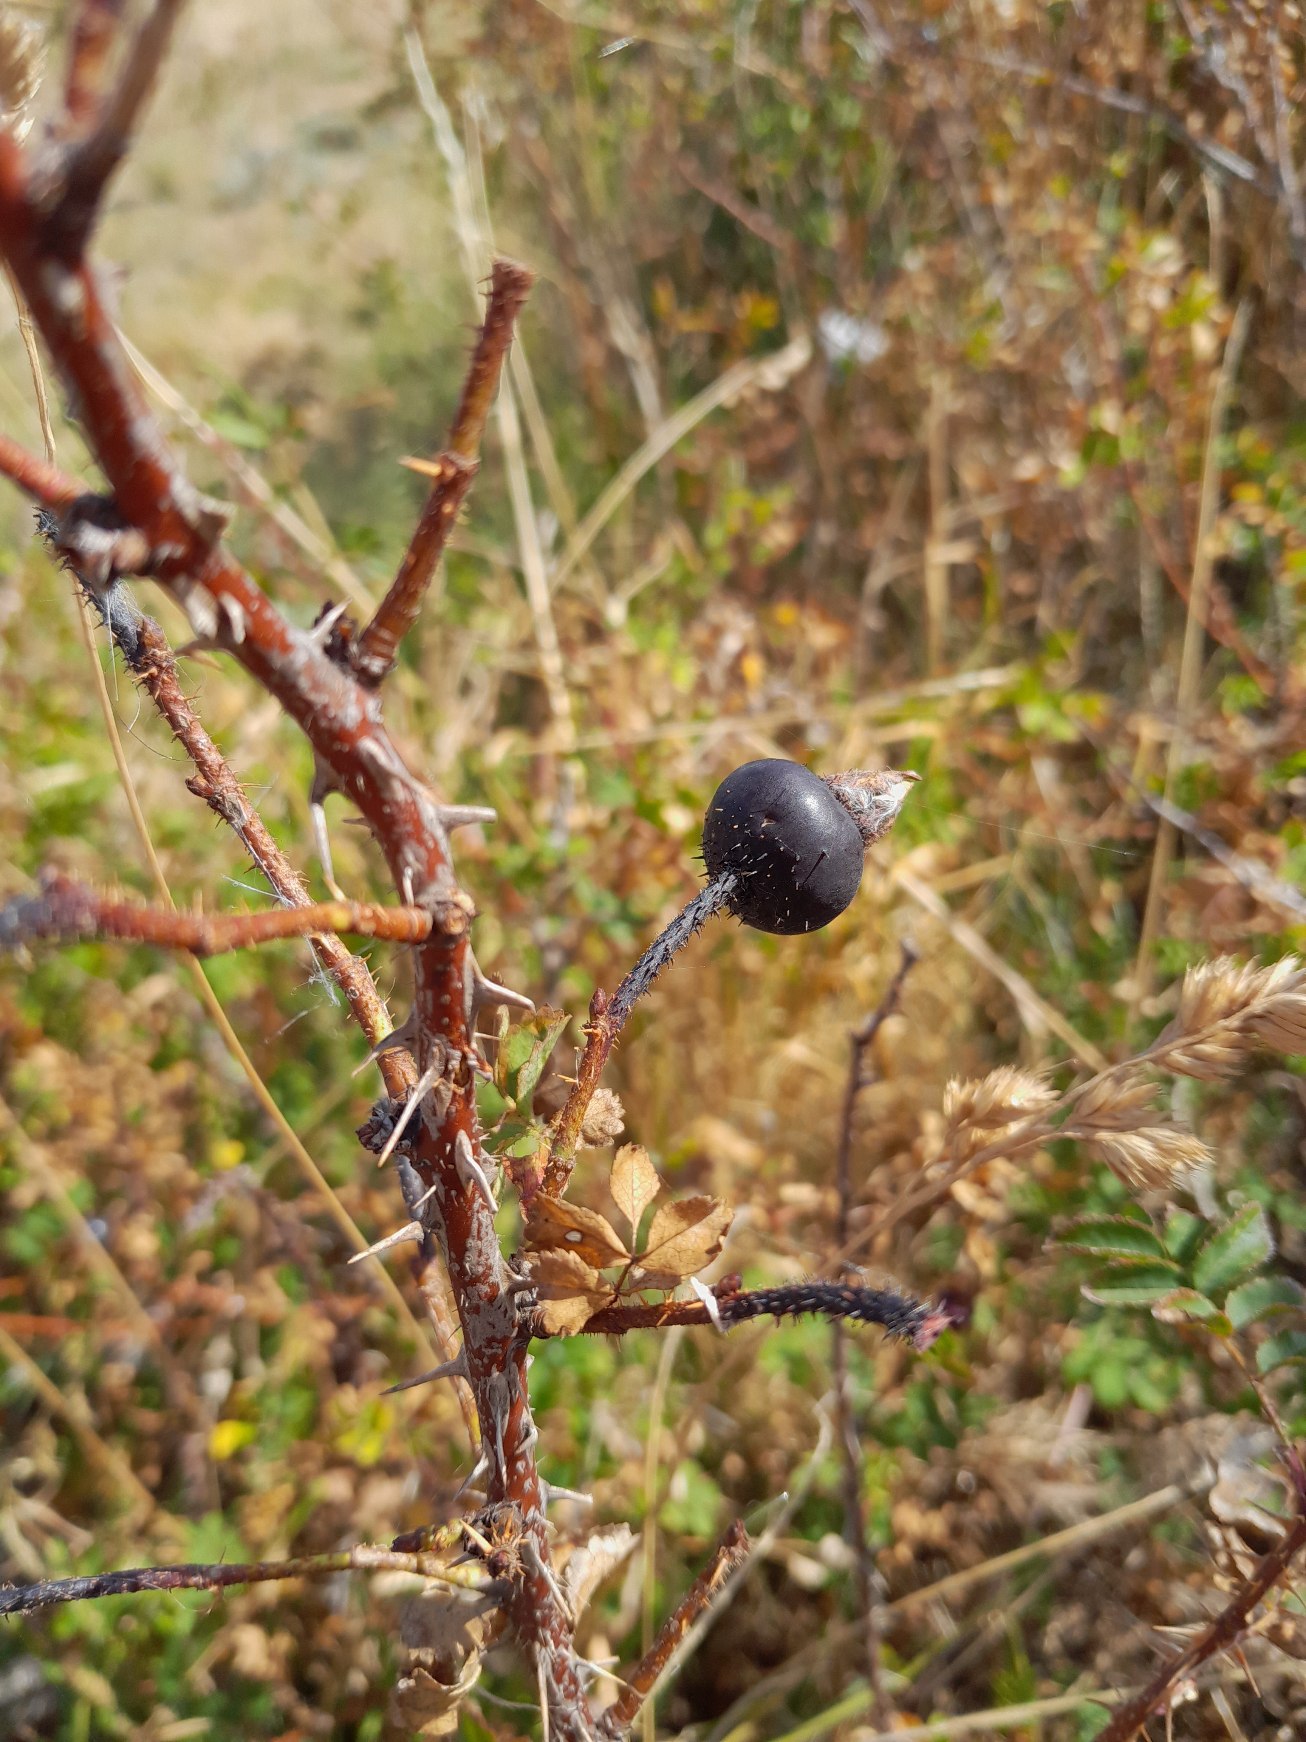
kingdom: Plantae
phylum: Tracheophyta
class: Magnoliopsida
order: Rosales
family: Rosaceae
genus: Rosa
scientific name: Rosa spinosissima
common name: Klit-rose
